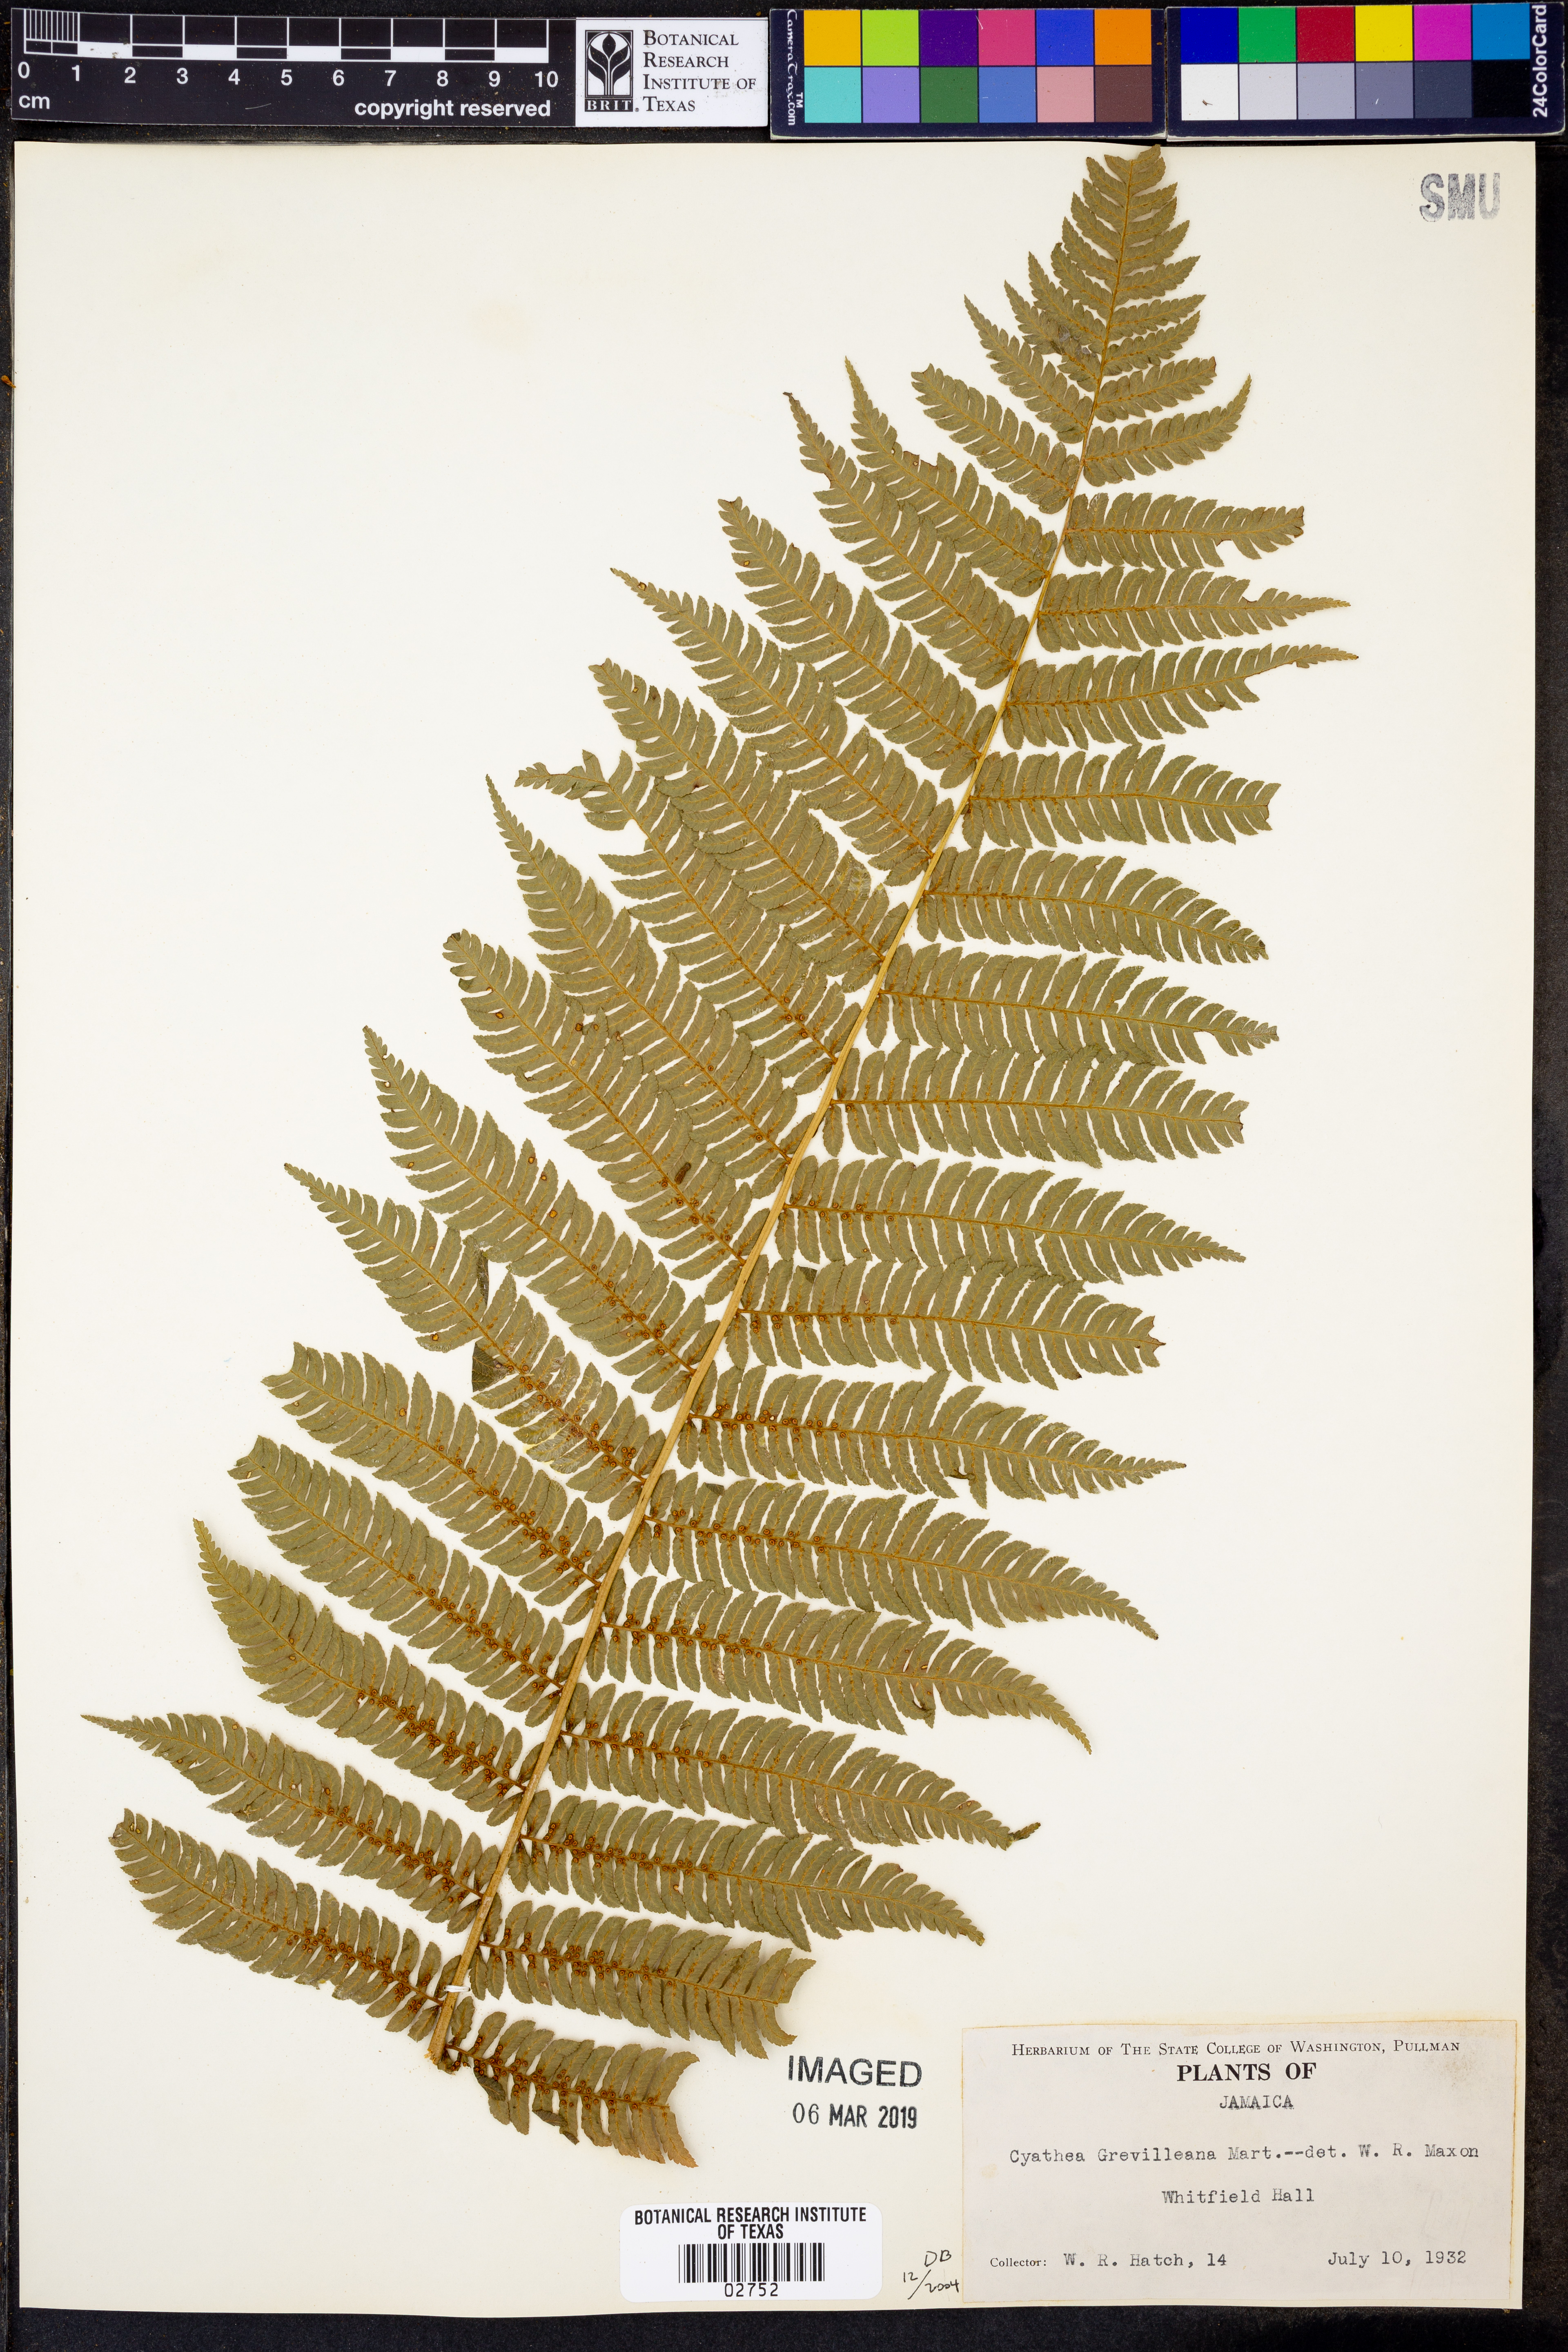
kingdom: Plantae
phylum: Tracheophyta
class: Polypodiopsida
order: Cyatheales
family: Cyatheaceae
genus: Alsophila
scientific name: Alsophila grevilleana
